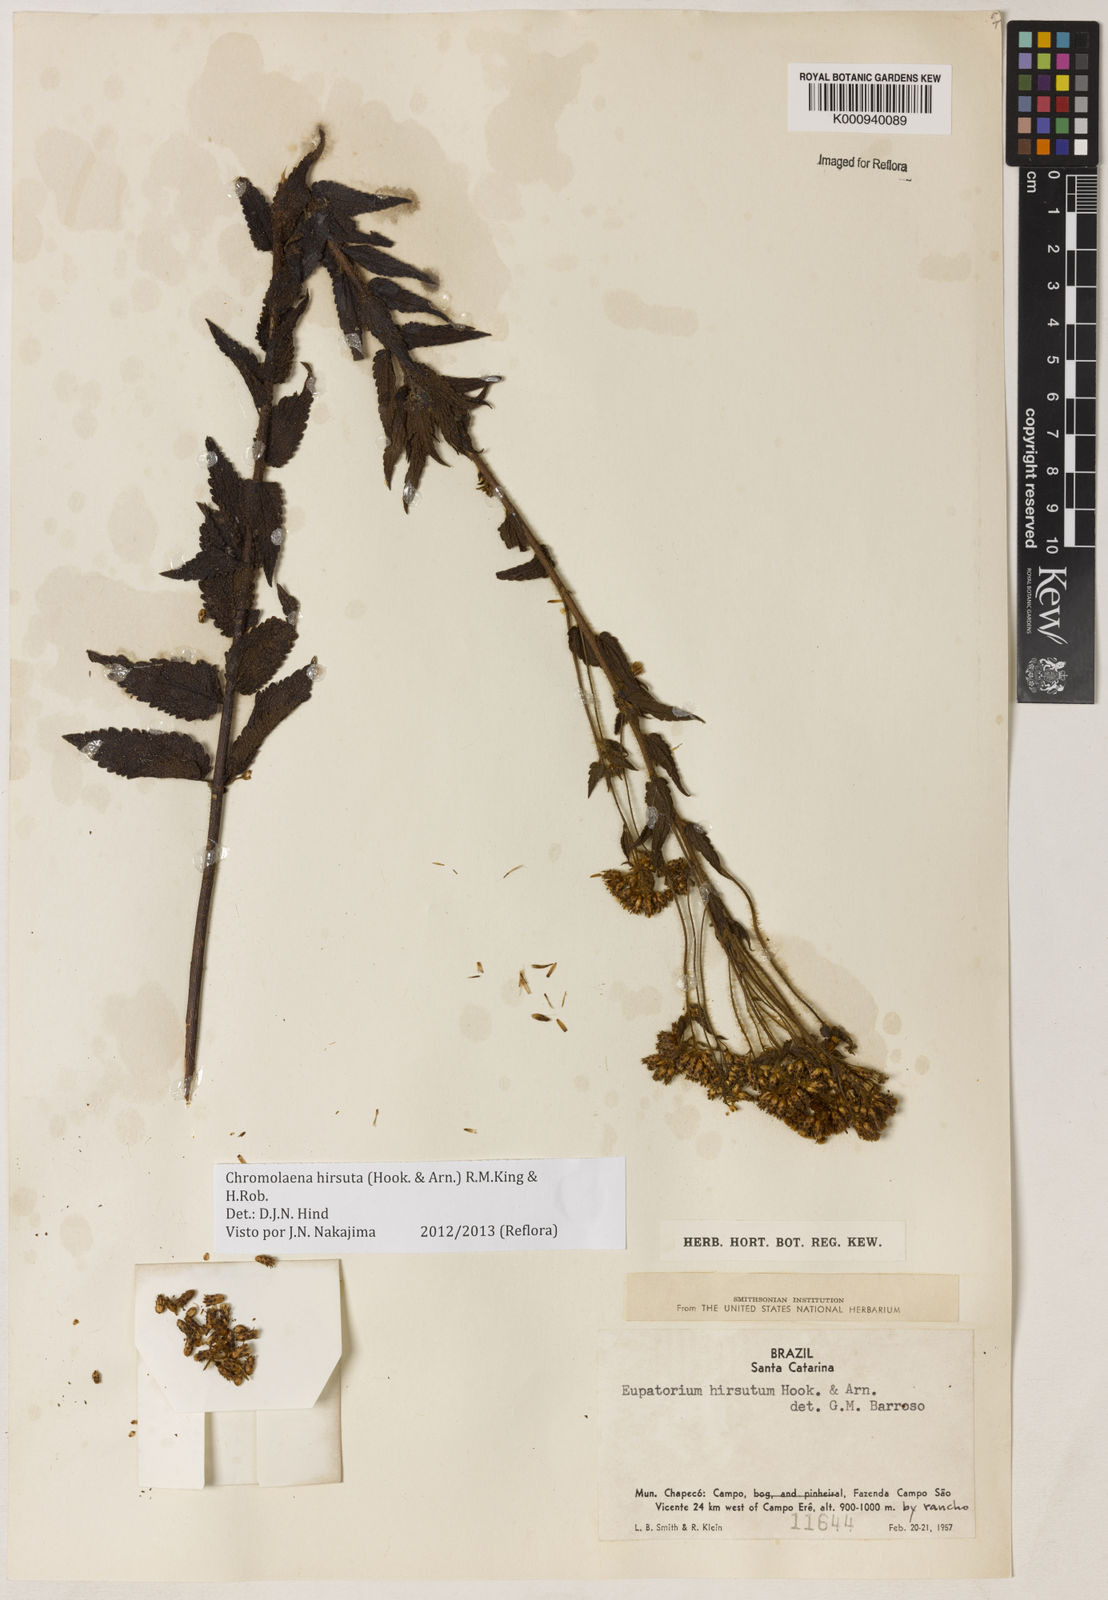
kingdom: Plantae
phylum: Tracheophyta
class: Magnoliopsida
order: Asterales
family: Asteraceae
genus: Chromolaena
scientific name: Chromolaena hirsuta
